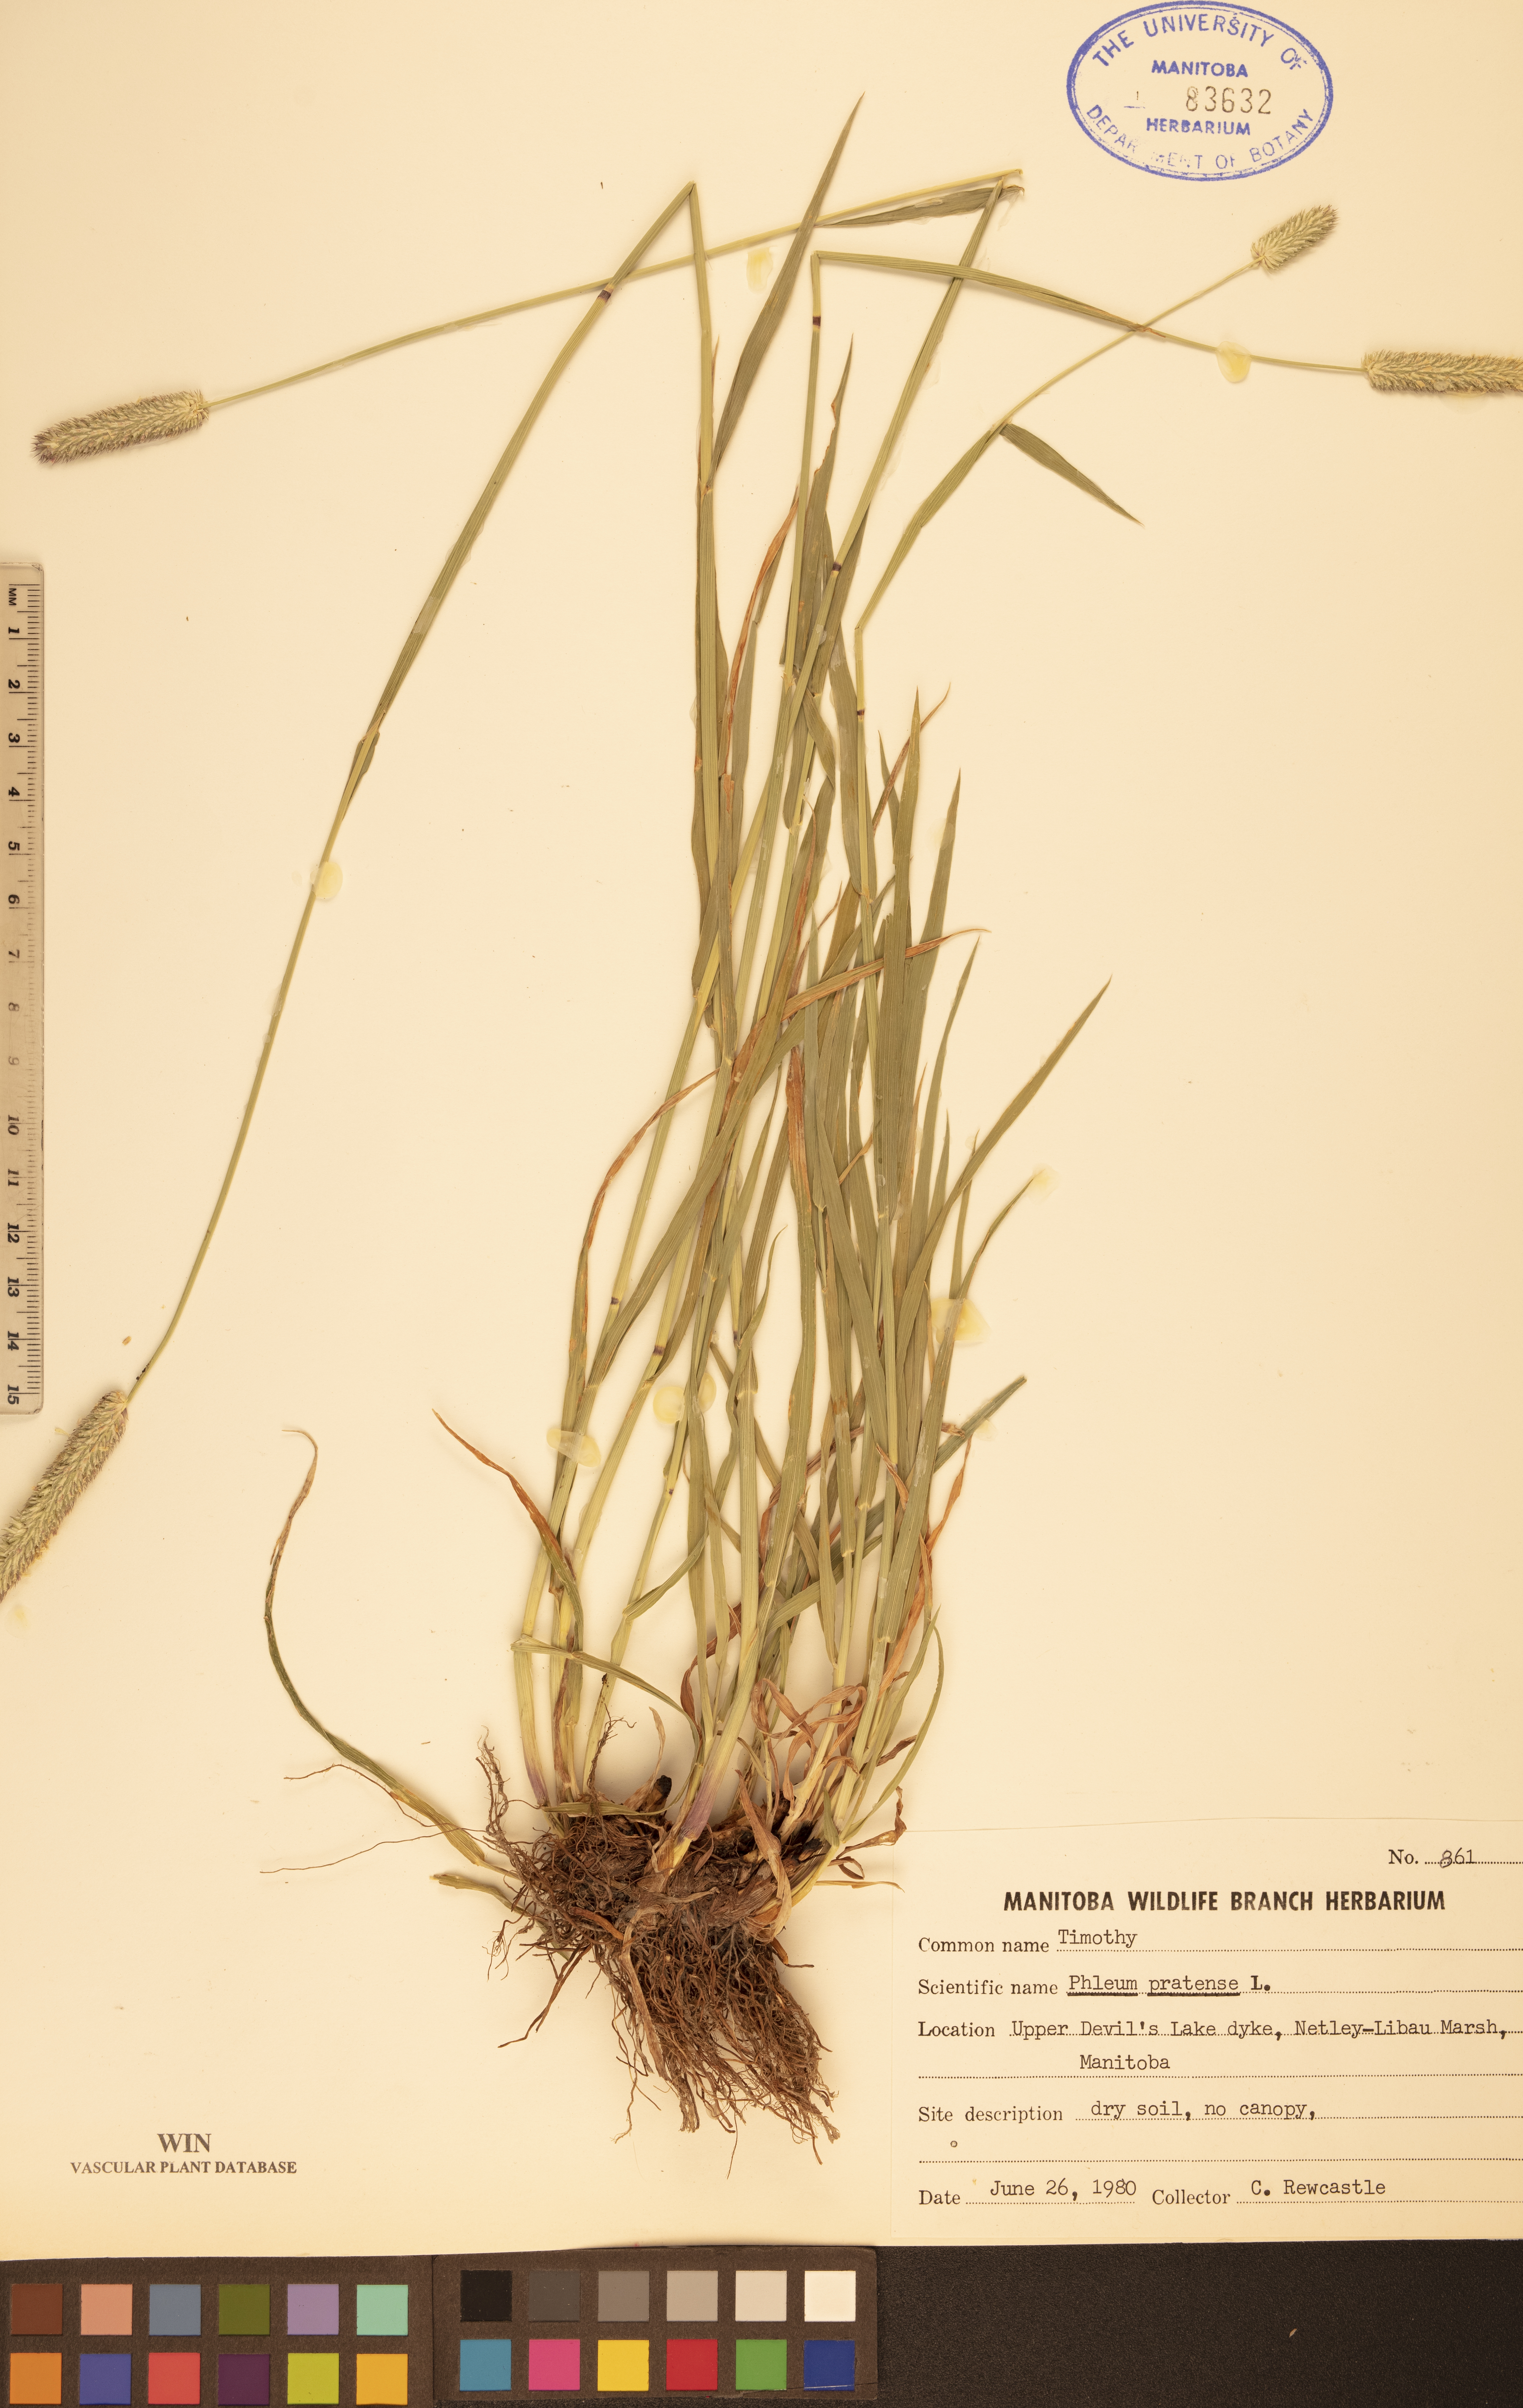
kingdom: Plantae
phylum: Tracheophyta
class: Liliopsida
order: Poales
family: Poaceae
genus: Phleum
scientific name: Phleum pratense
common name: Timothy grass
